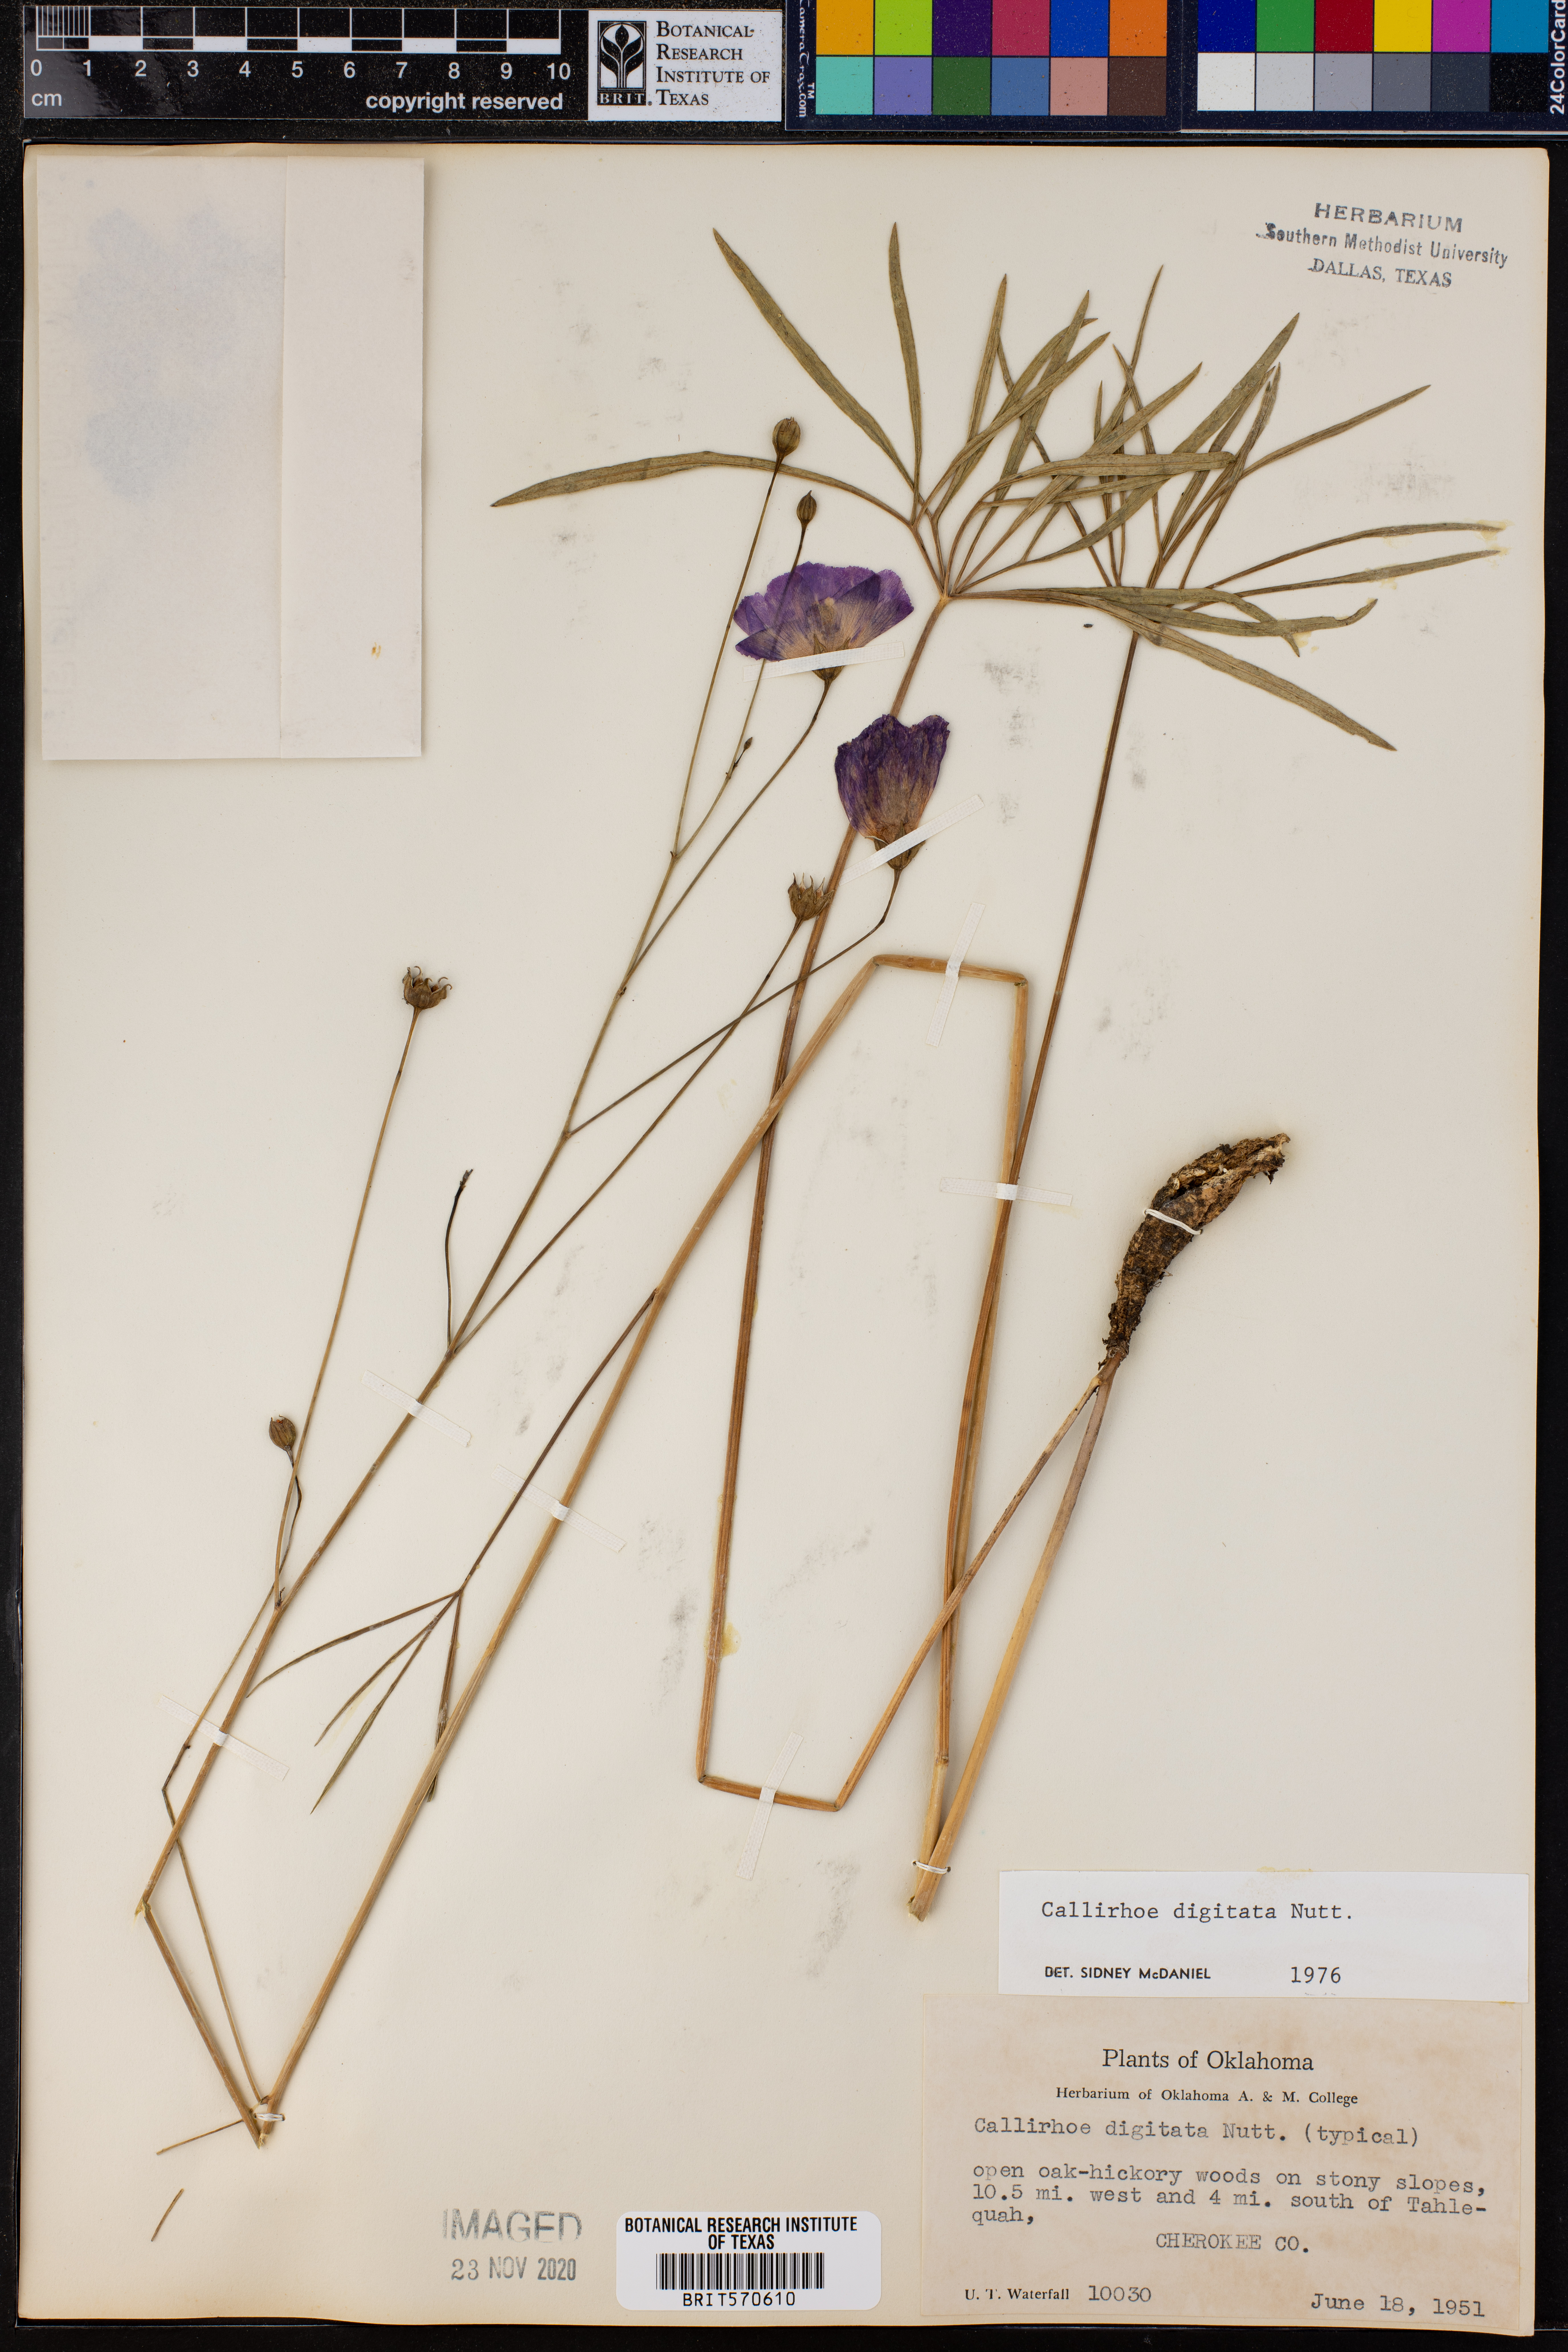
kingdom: Plantae
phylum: Tracheophyta
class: Magnoliopsida
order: Malvales
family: Malvaceae
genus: Callirhoe
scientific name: Callirhoe digitata
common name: Finger poppy-mallow
